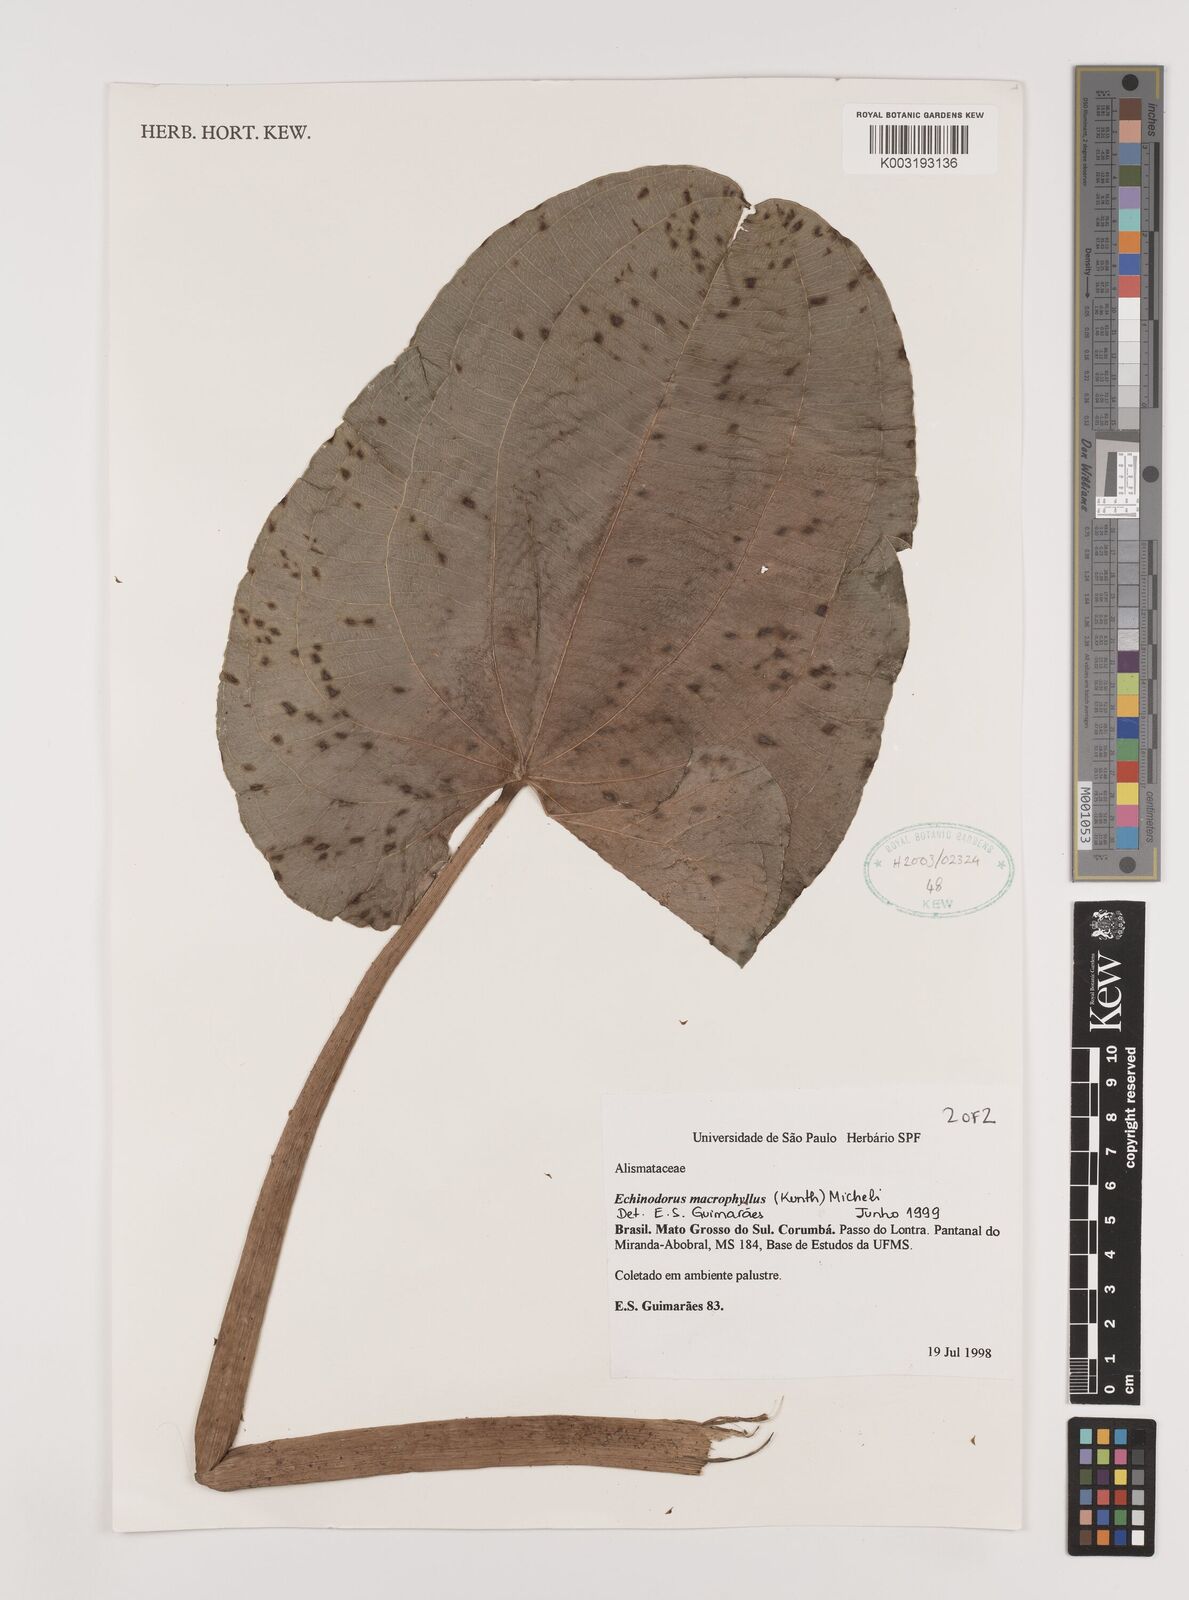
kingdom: Plantae
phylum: Tracheophyta
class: Liliopsida
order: Alismatales
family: Alismataceae
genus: Aquarius
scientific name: Aquarius macrophyllus
